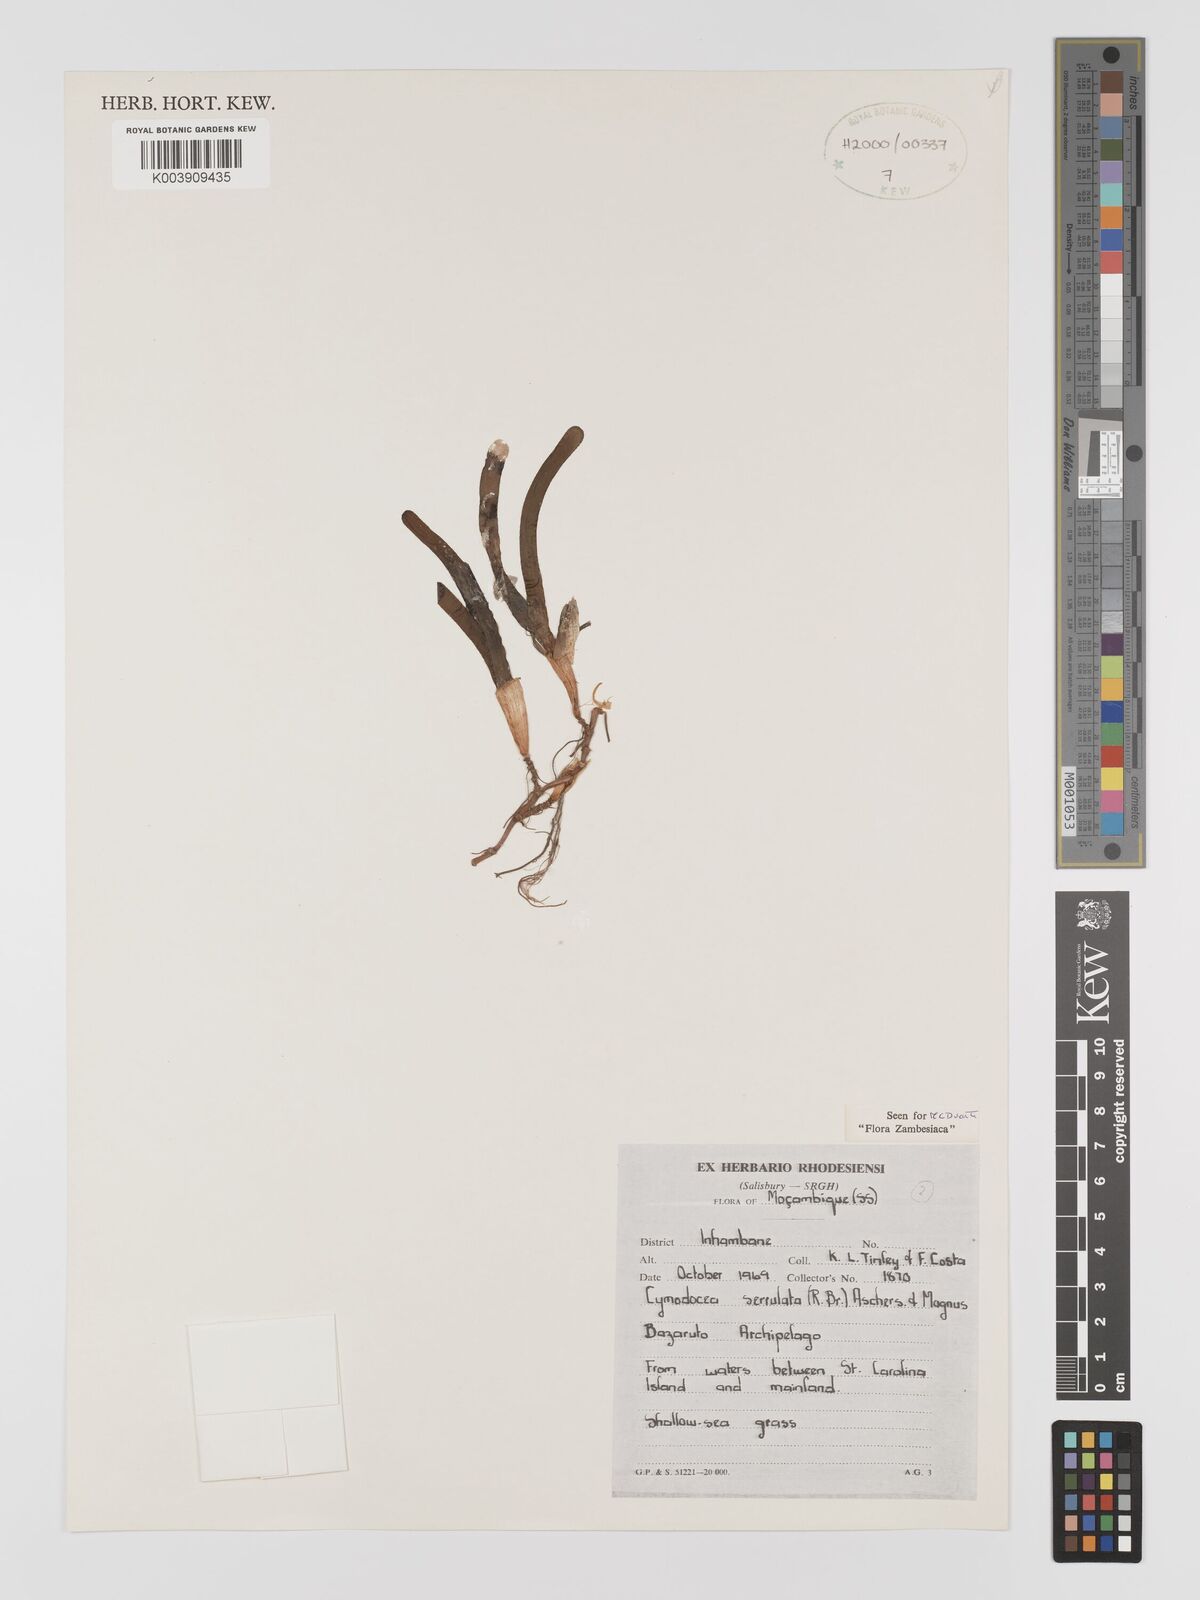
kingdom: Plantae
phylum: Tracheophyta
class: Liliopsida
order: Alismatales
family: Cymodoceaceae
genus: Oceana
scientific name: Oceana serrulata
